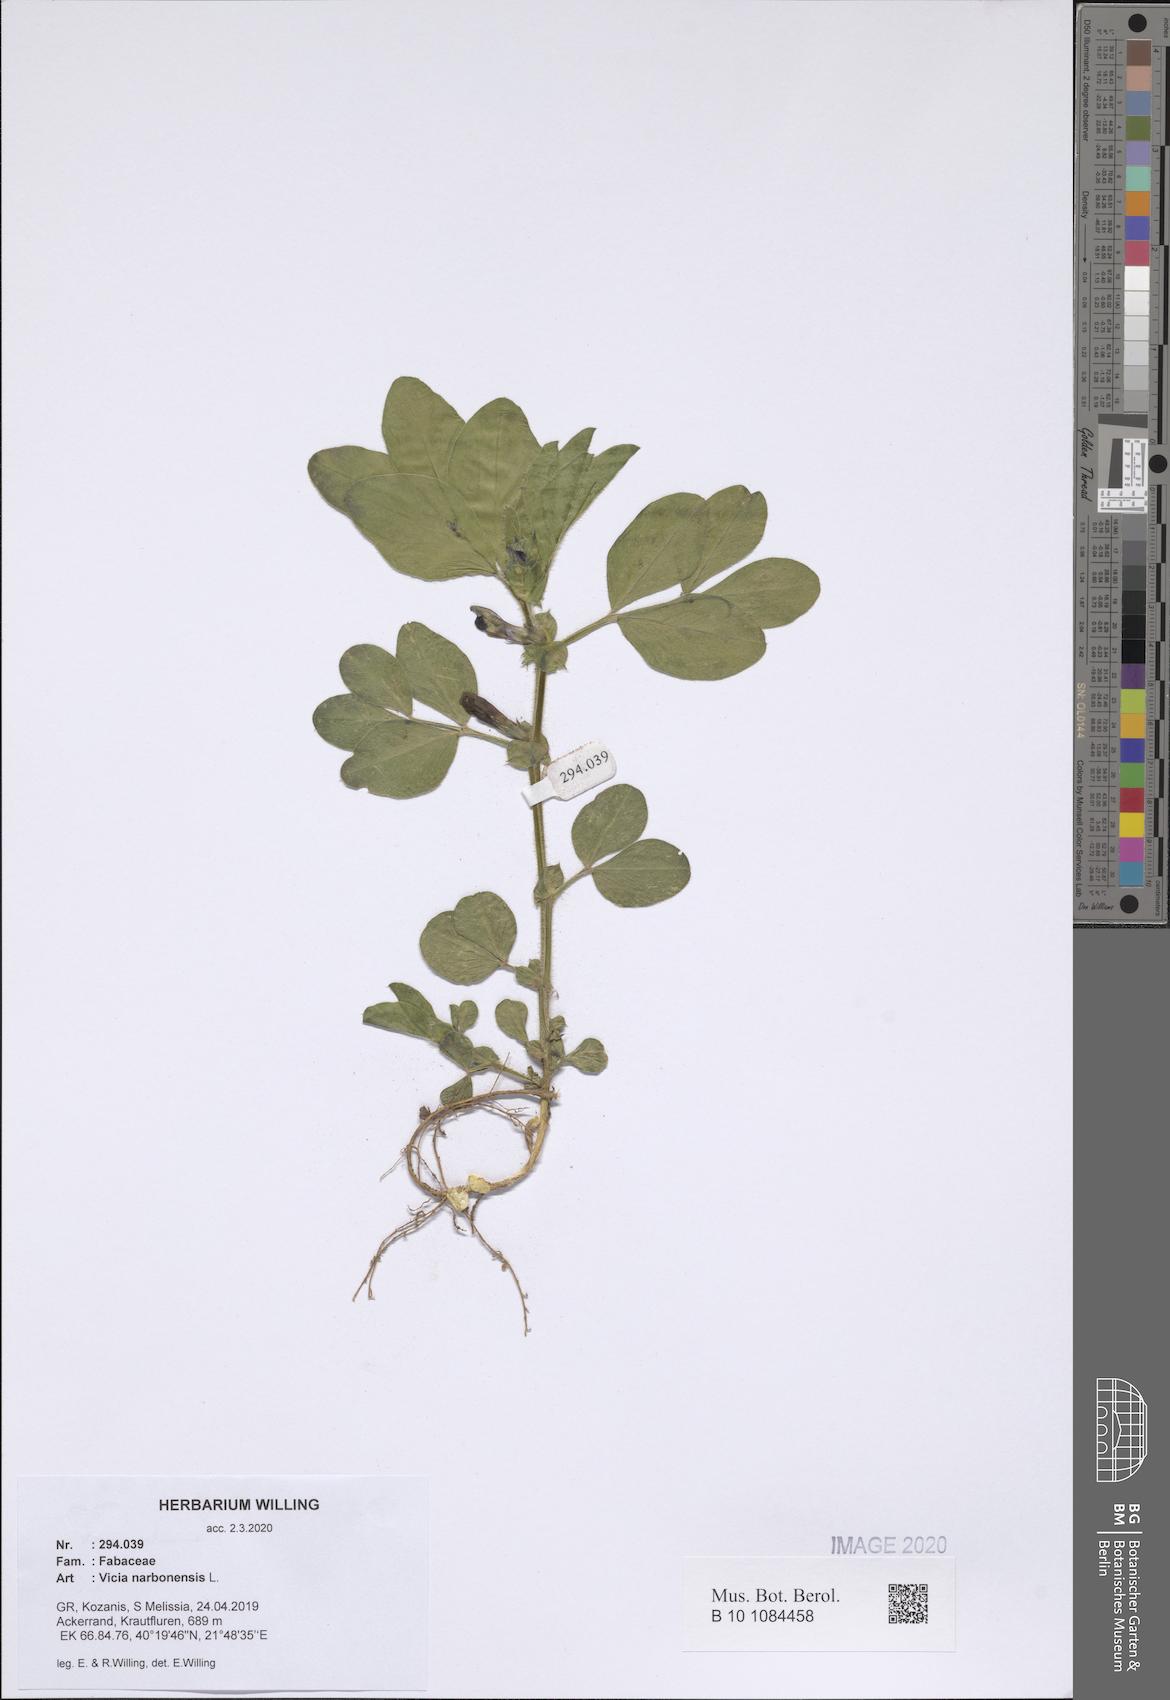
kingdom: Plantae
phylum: Tracheophyta
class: Magnoliopsida
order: Fabales
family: Fabaceae
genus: Vicia
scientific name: Vicia narbonensis
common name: Narbonne vetch
